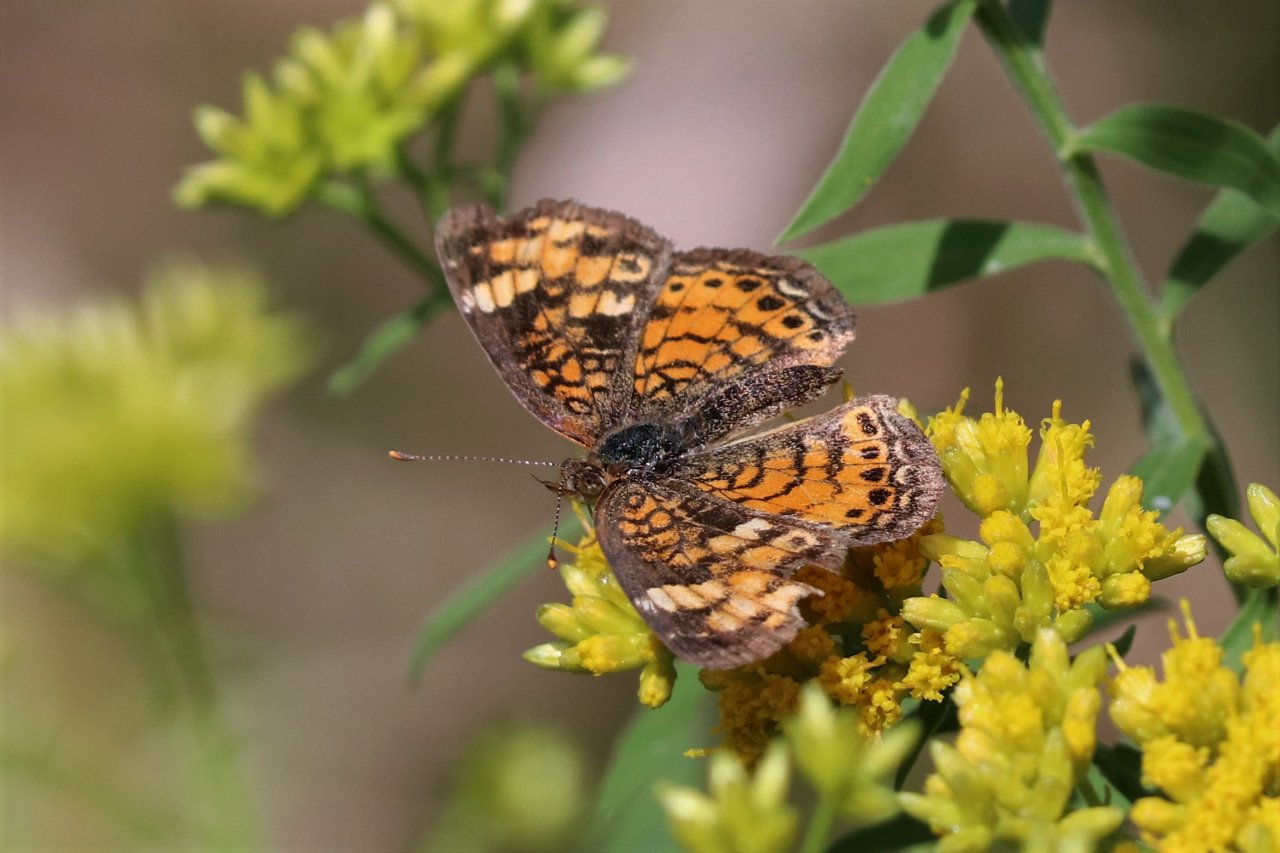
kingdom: Animalia
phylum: Arthropoda
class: Insecta
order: Lepidoptera
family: Nymphalidae
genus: Phyciodes
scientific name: Phyciodes tharos
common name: Pearl Crescent
